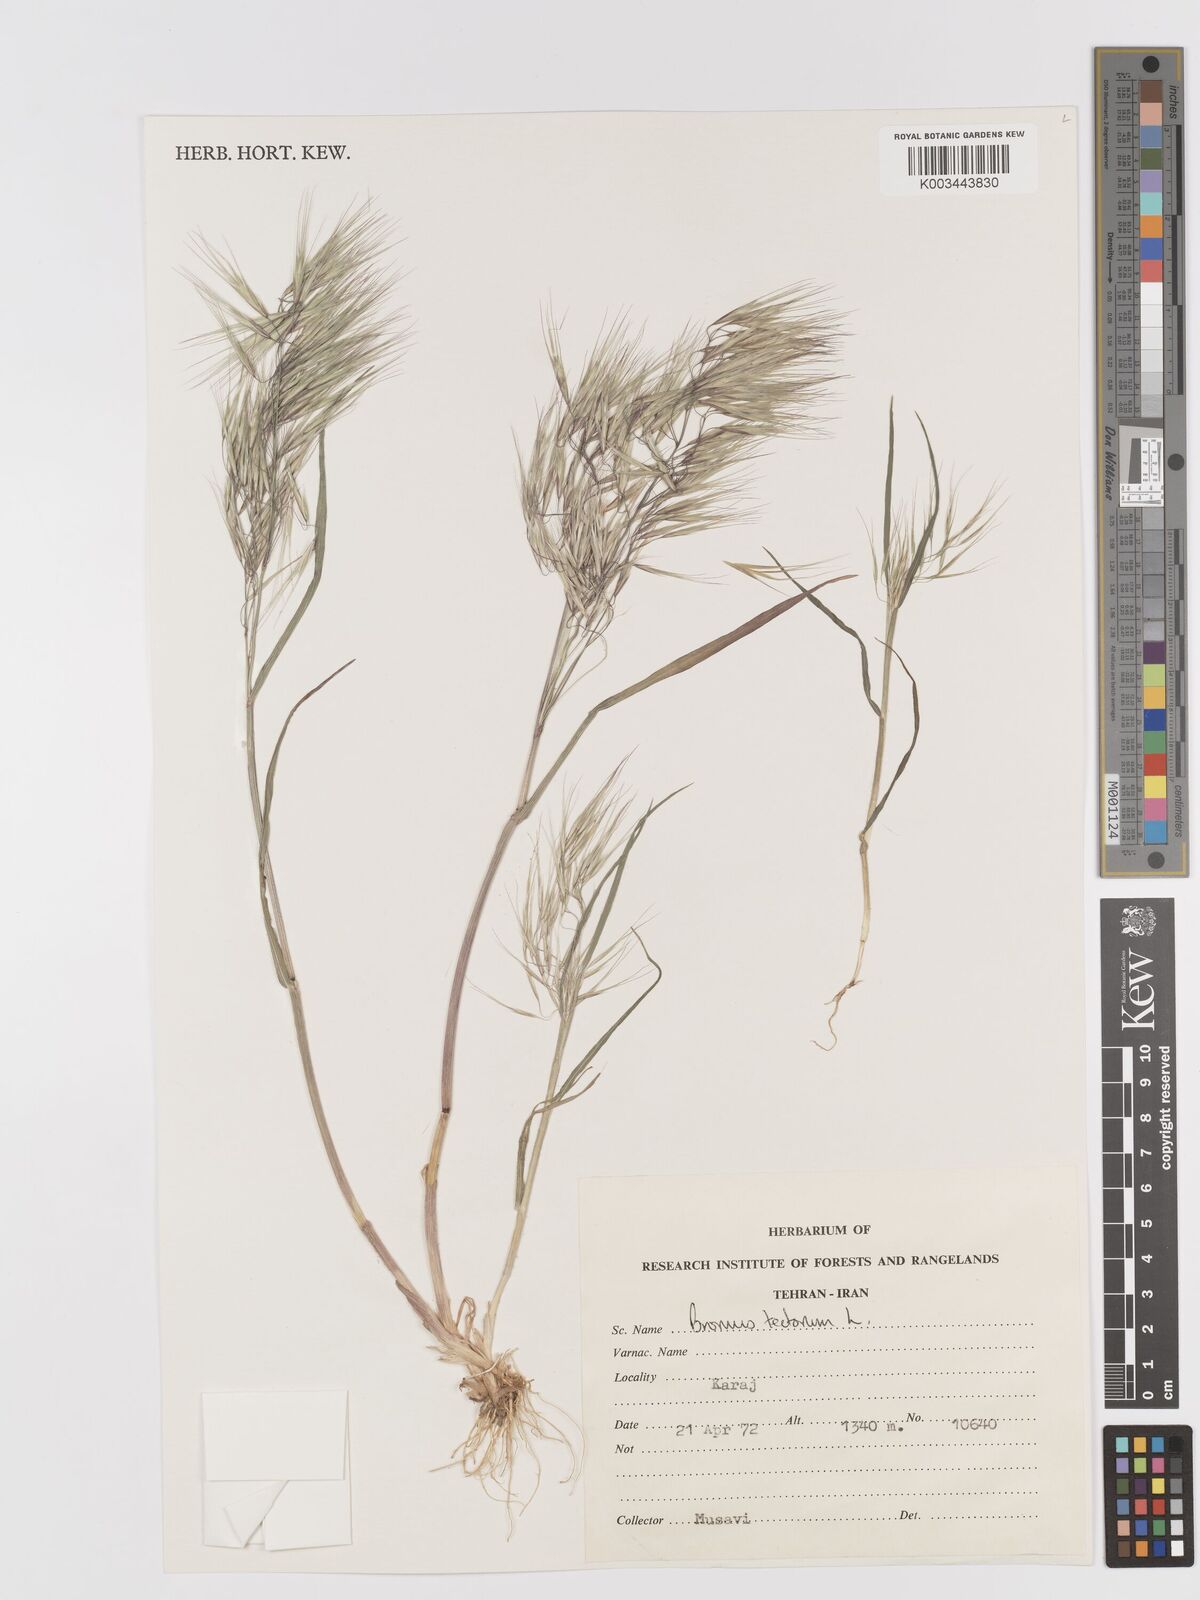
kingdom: Plantae
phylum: Tracheophyta
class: Liliopsida
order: Poales
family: Poaceae
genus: Bromus
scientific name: Bromus tectorum
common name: Cheatgrass
